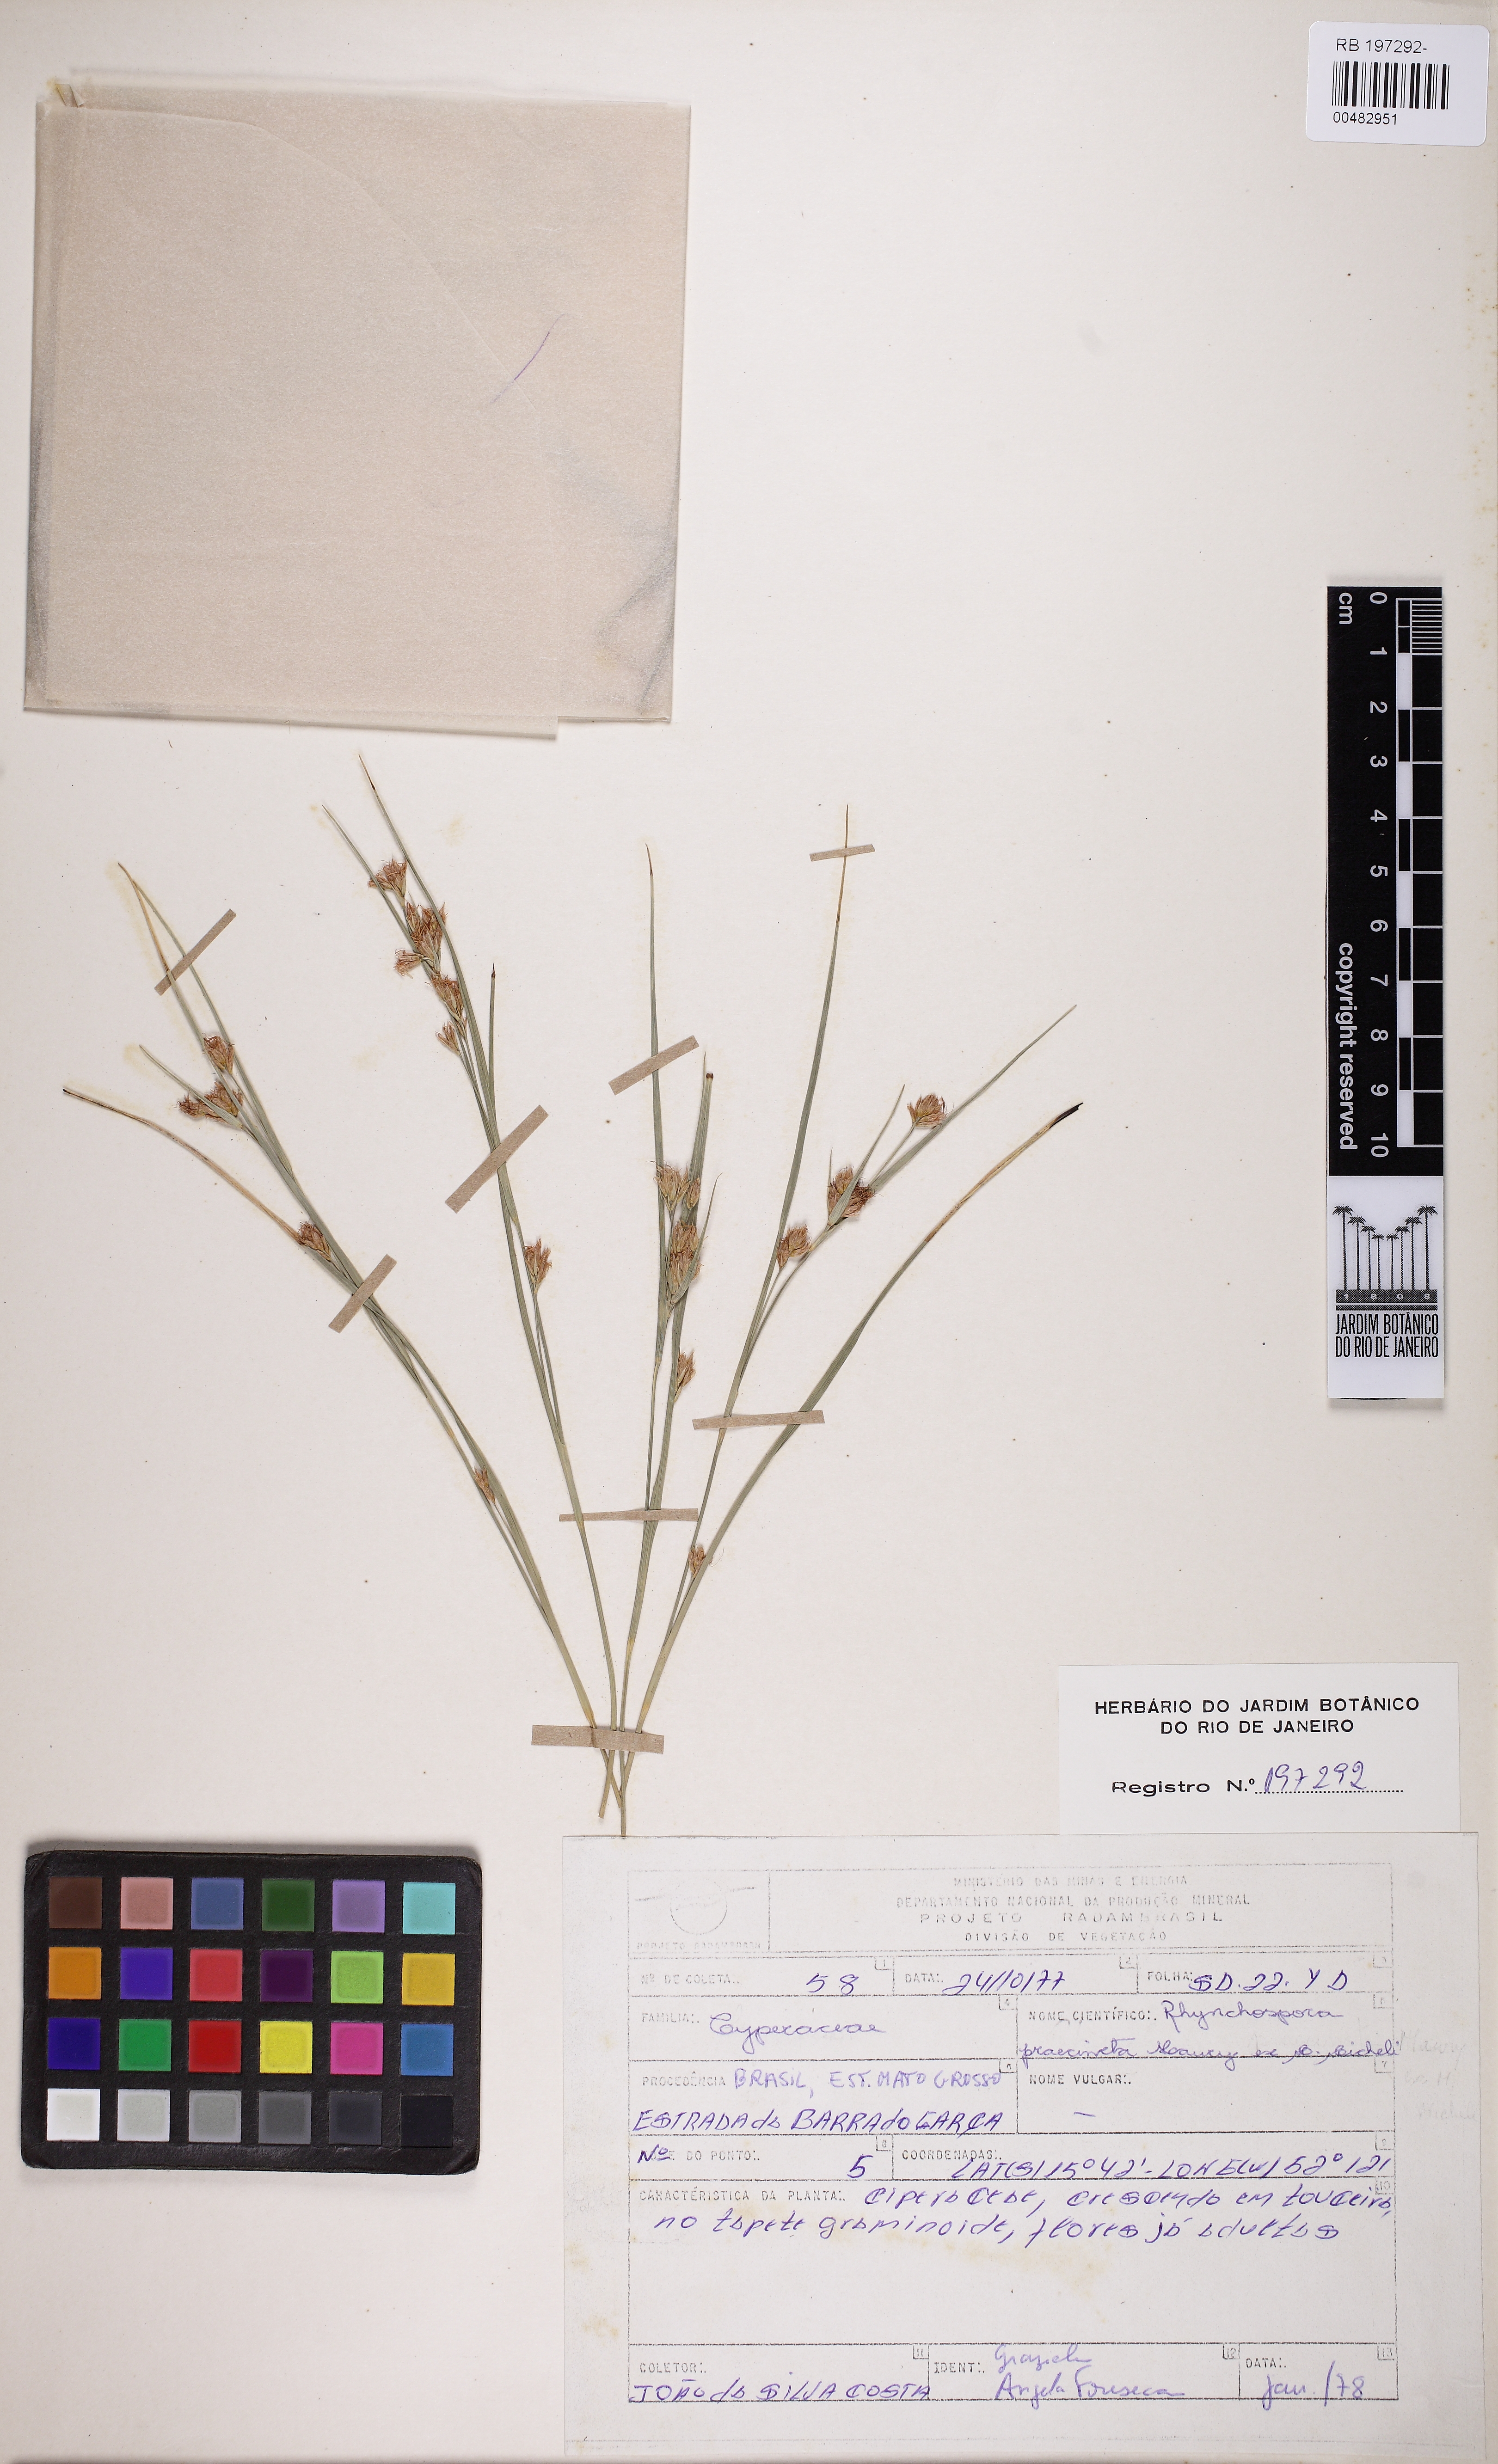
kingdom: Plantae
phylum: Tracheophyta
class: Liliopsida
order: Poales
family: Cyperaceae
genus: Rhynchospora
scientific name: Rhynchospora praecincta
